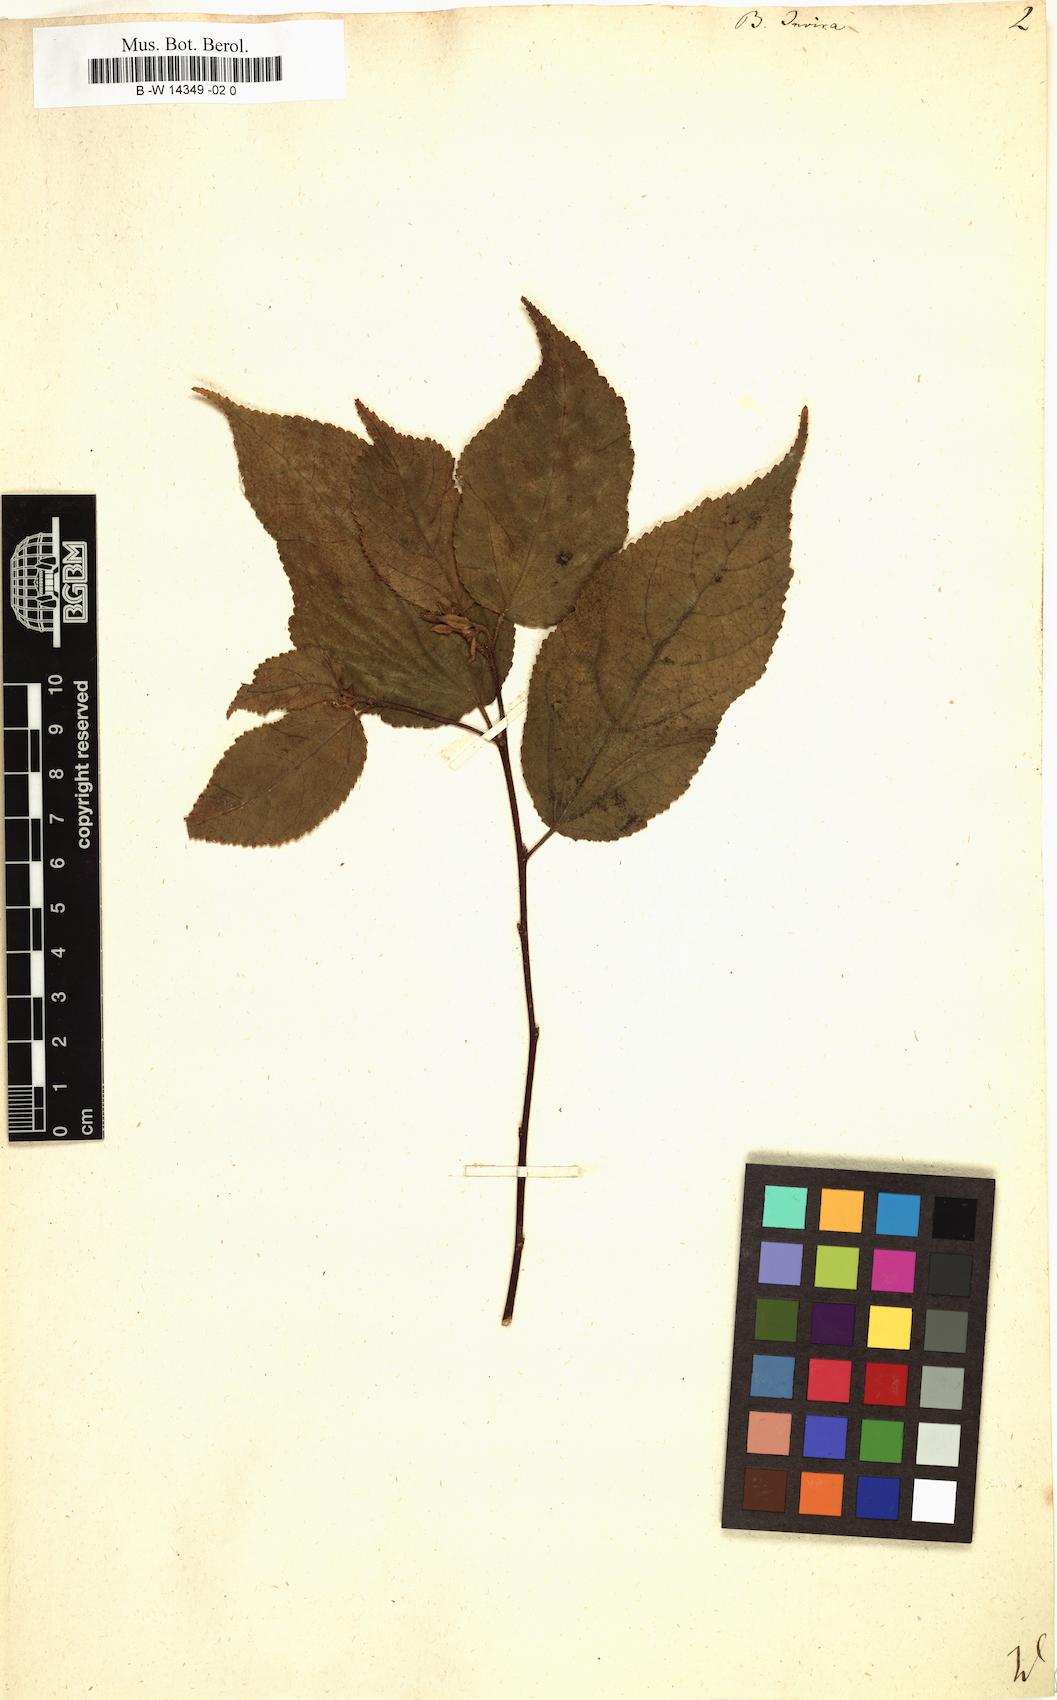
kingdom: Plantae
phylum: Tracheophyta
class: Magnoliopsida
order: Malvales
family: Malvaceae
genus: Guazuma
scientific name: Guazuma invira
